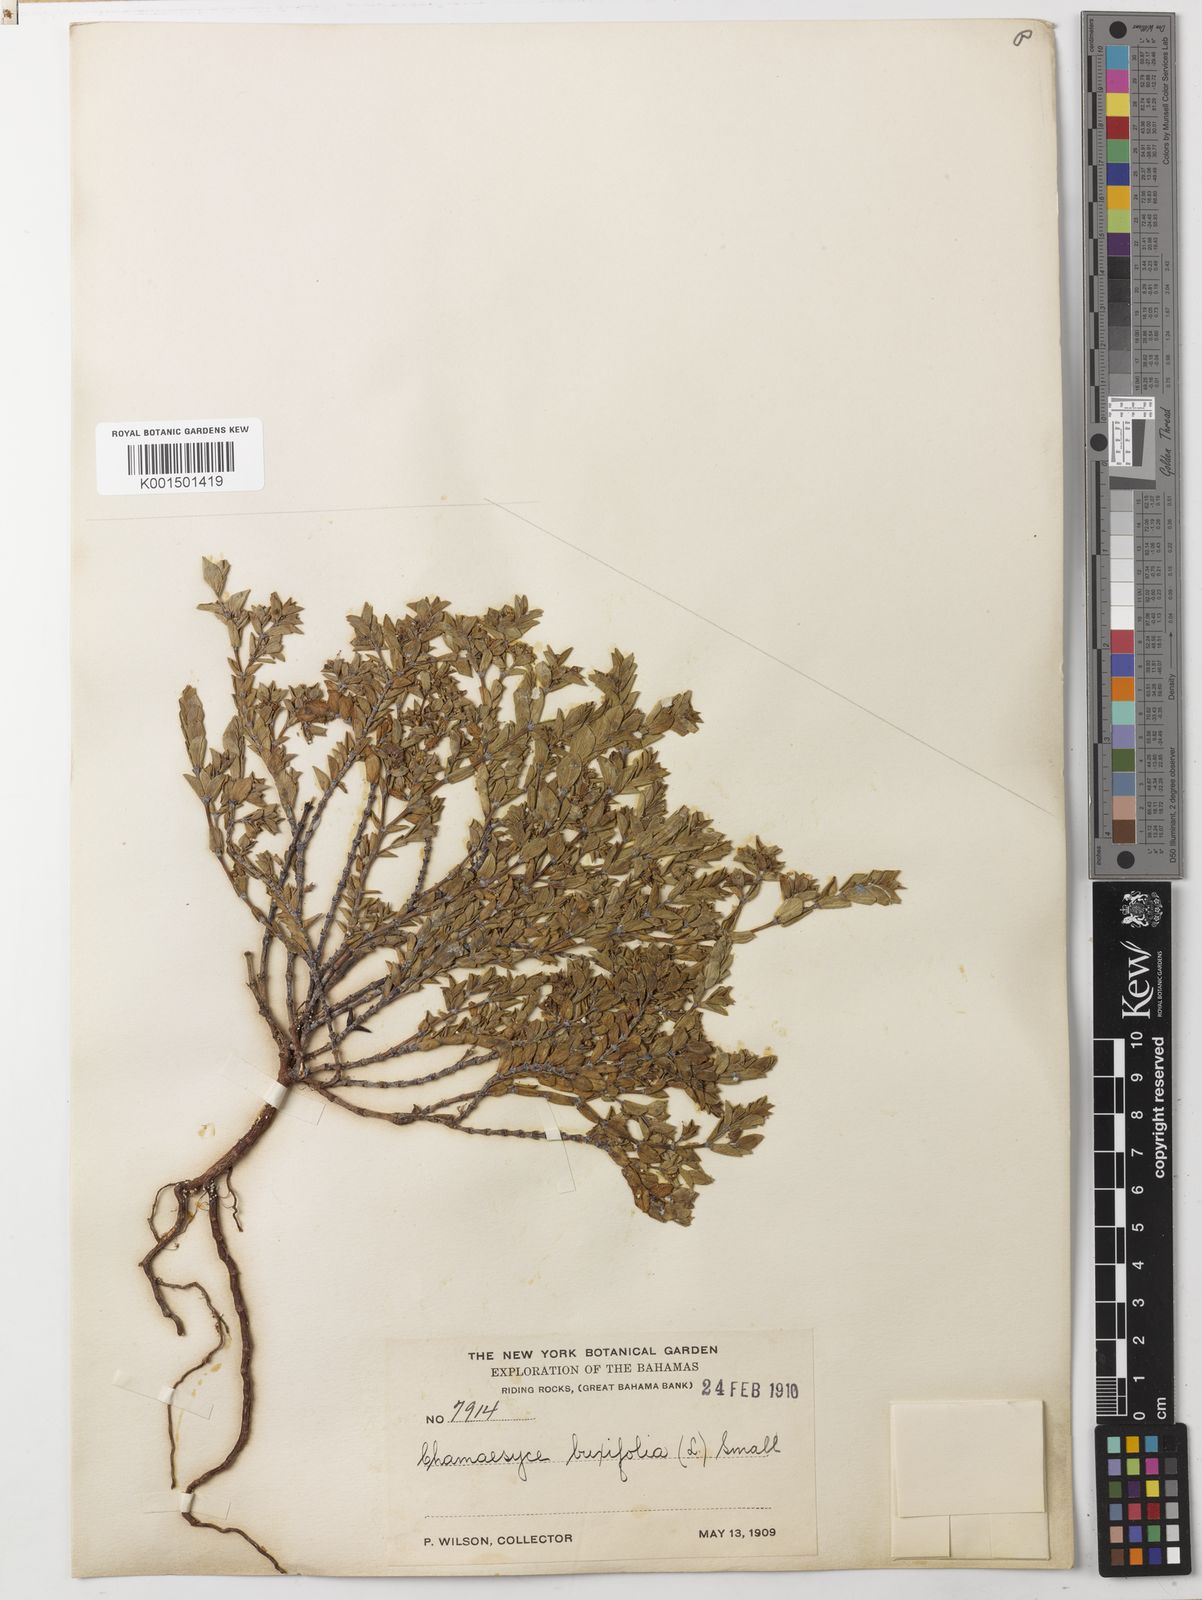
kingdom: Plantae
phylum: Tracheophyta
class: Magnoliopsida
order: Malpighiales
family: Euphorbiaceae
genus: Euphorbia
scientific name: Euphorbia mesembryanthemifolia
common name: Coastal beach sandmat
